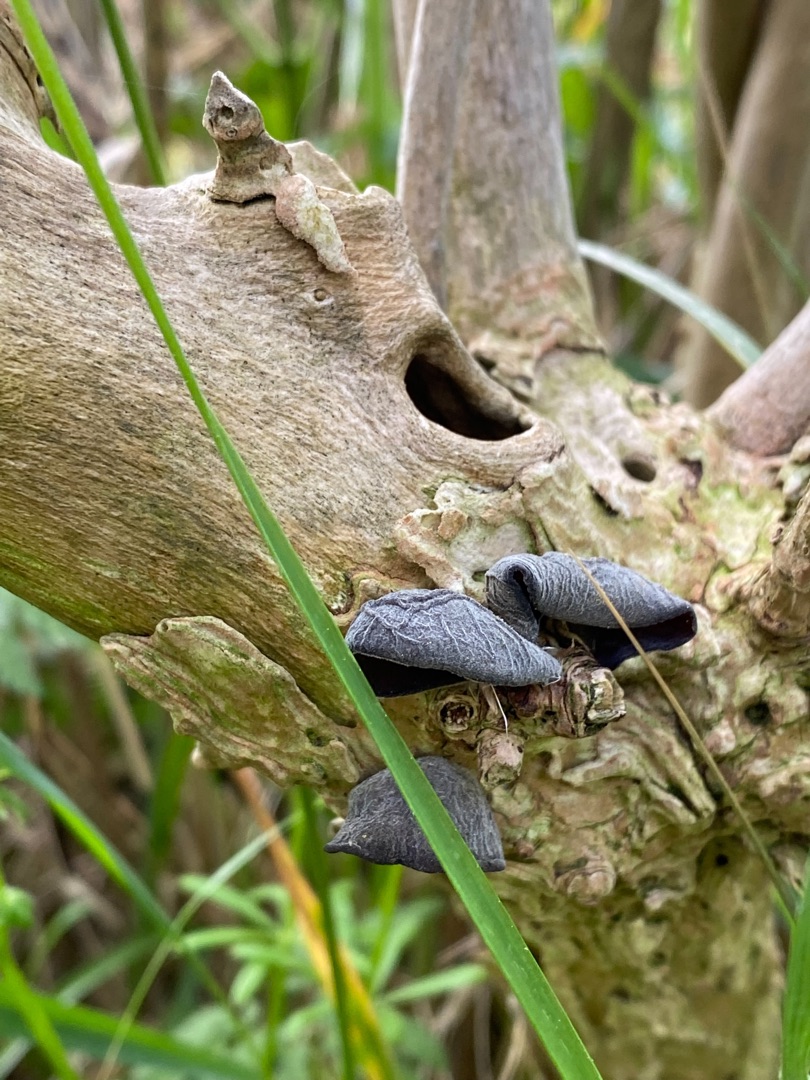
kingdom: Fungi
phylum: Basidiomycota
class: Agaricomycetes
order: Auriculariales
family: Auriculariaceae
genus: Auricularia
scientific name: Auricularia auricula-judae
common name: Almindelig judasøre
